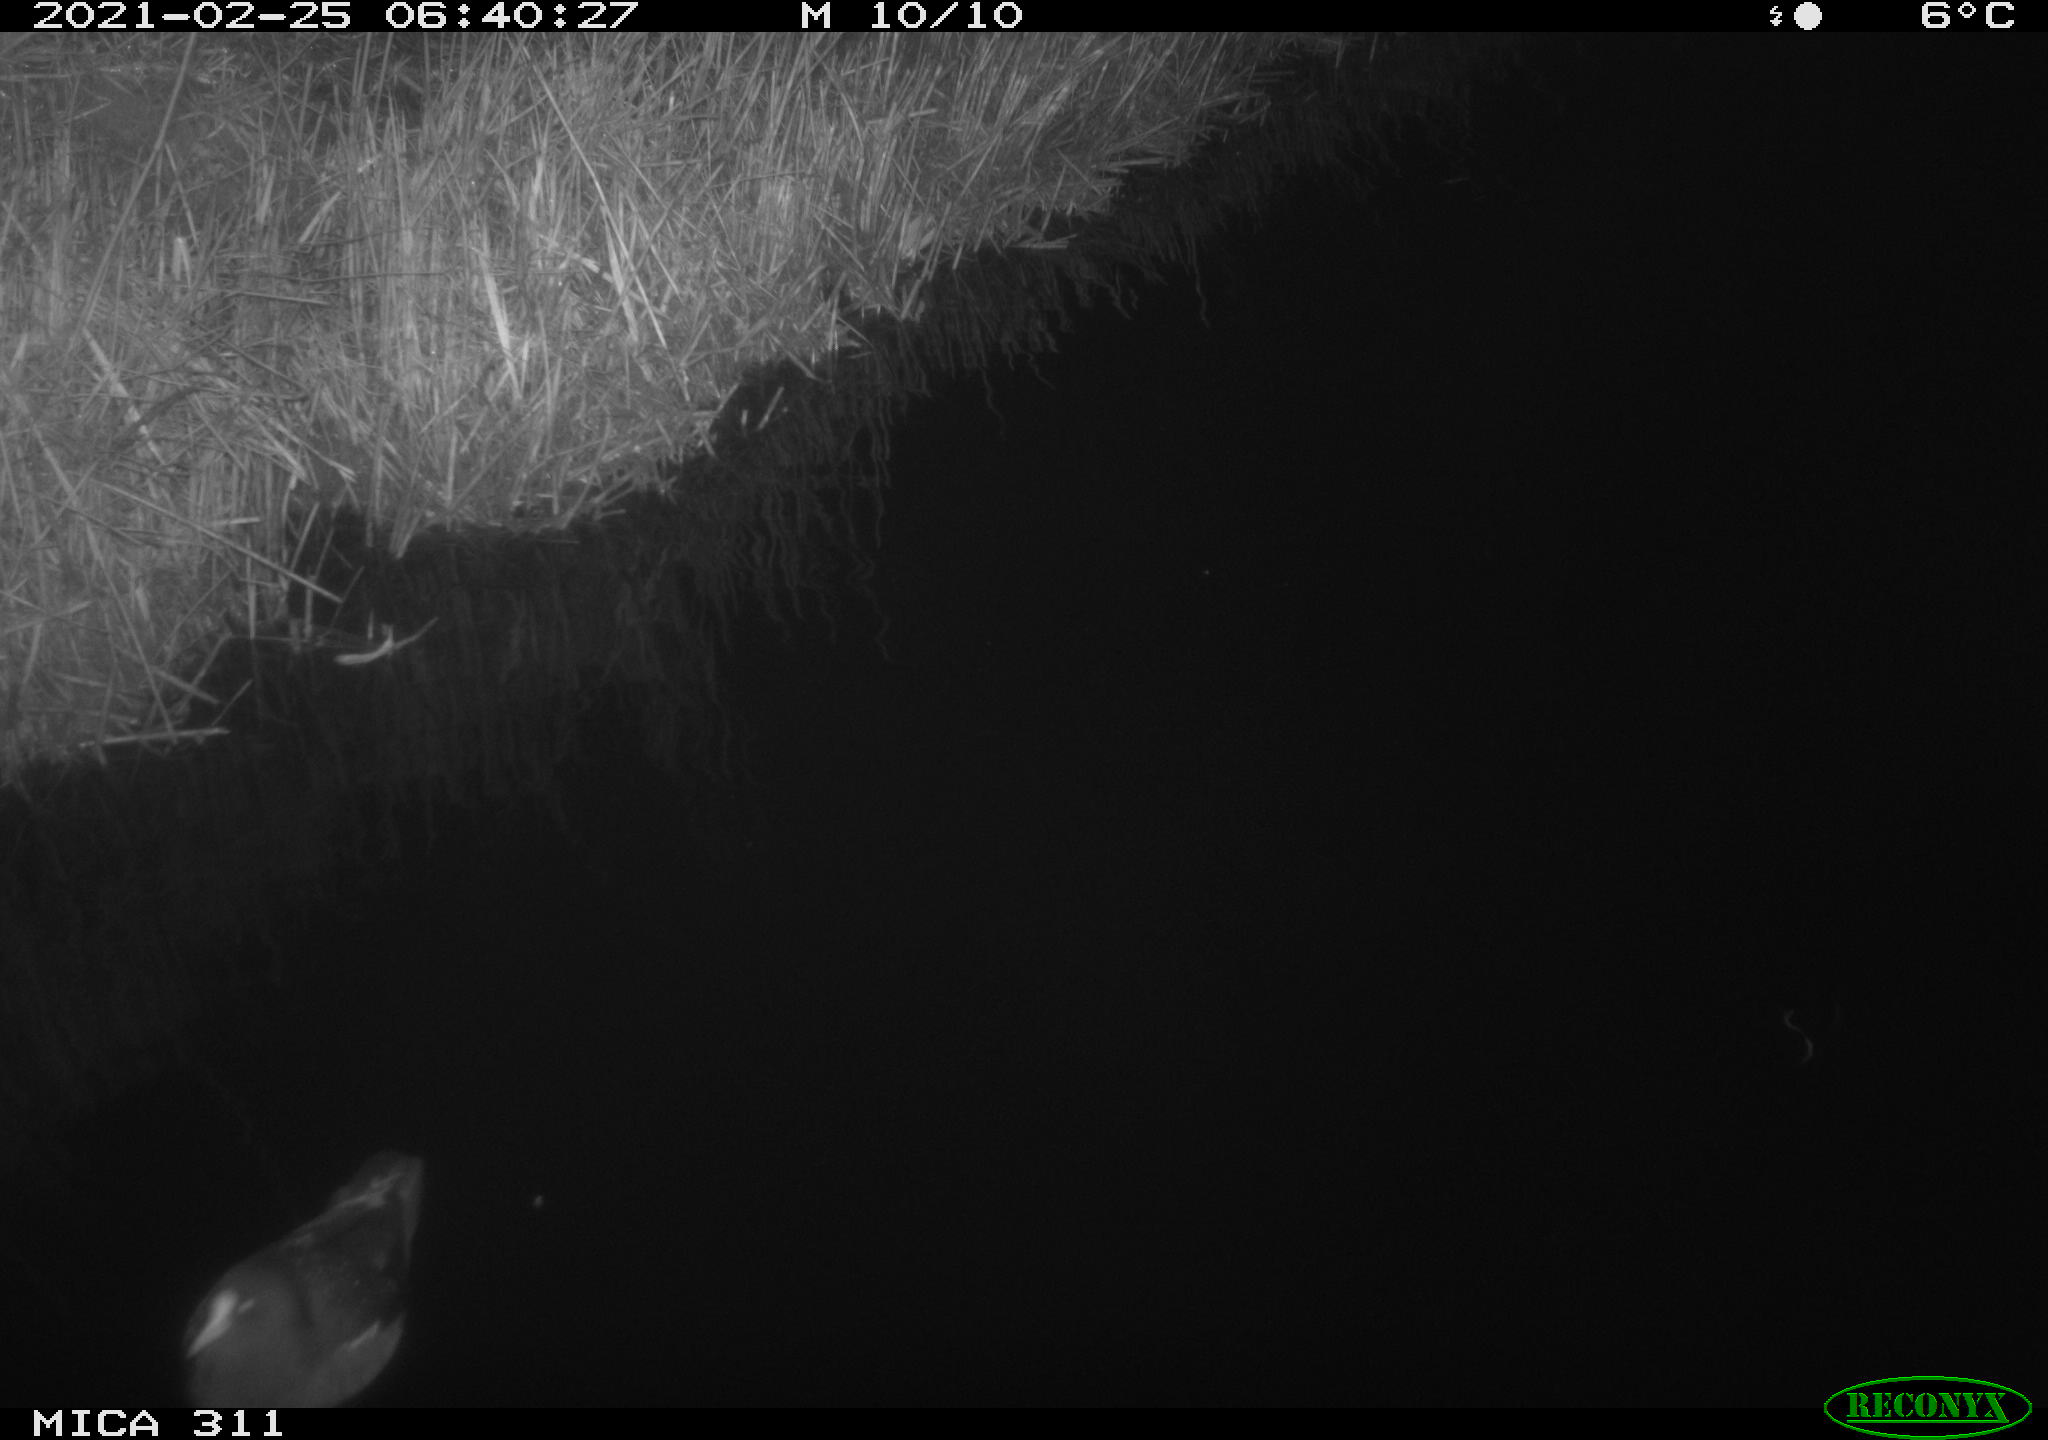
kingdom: Animalia
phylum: Chordata
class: Aves
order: Gruiformes
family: Rallidae
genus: Gallinula
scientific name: Gallinula chloropus
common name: Common moorhen
